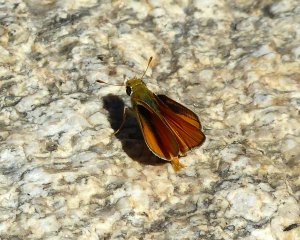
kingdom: Animalia
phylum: Arthropoda
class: Insecta
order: Lepidoptera
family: Hesperiidae
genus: Copaeodes
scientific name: Copaeodes aurantiaca
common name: Orange Skipperling
